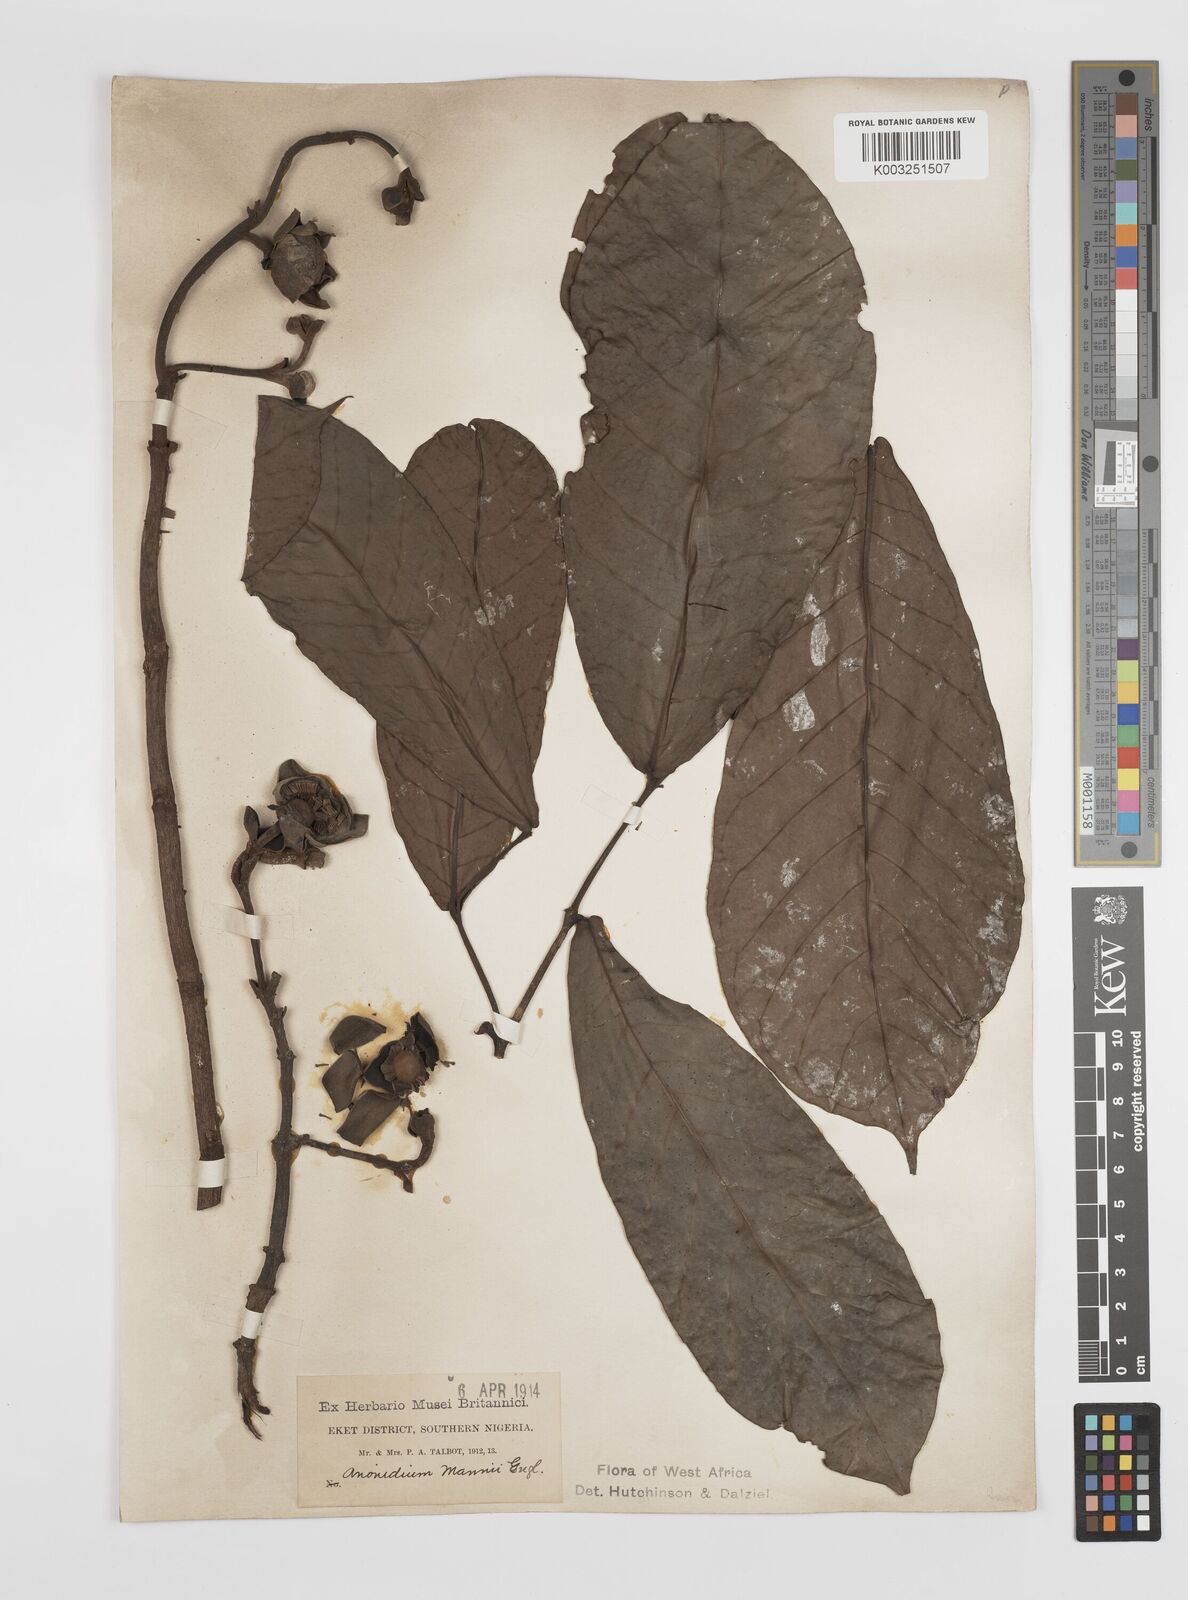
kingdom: Plantae
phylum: Tracheophyta
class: Magnoliopsida
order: Magnoliales
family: Annonaceae
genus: Anonidium
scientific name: Anonidium mannii
